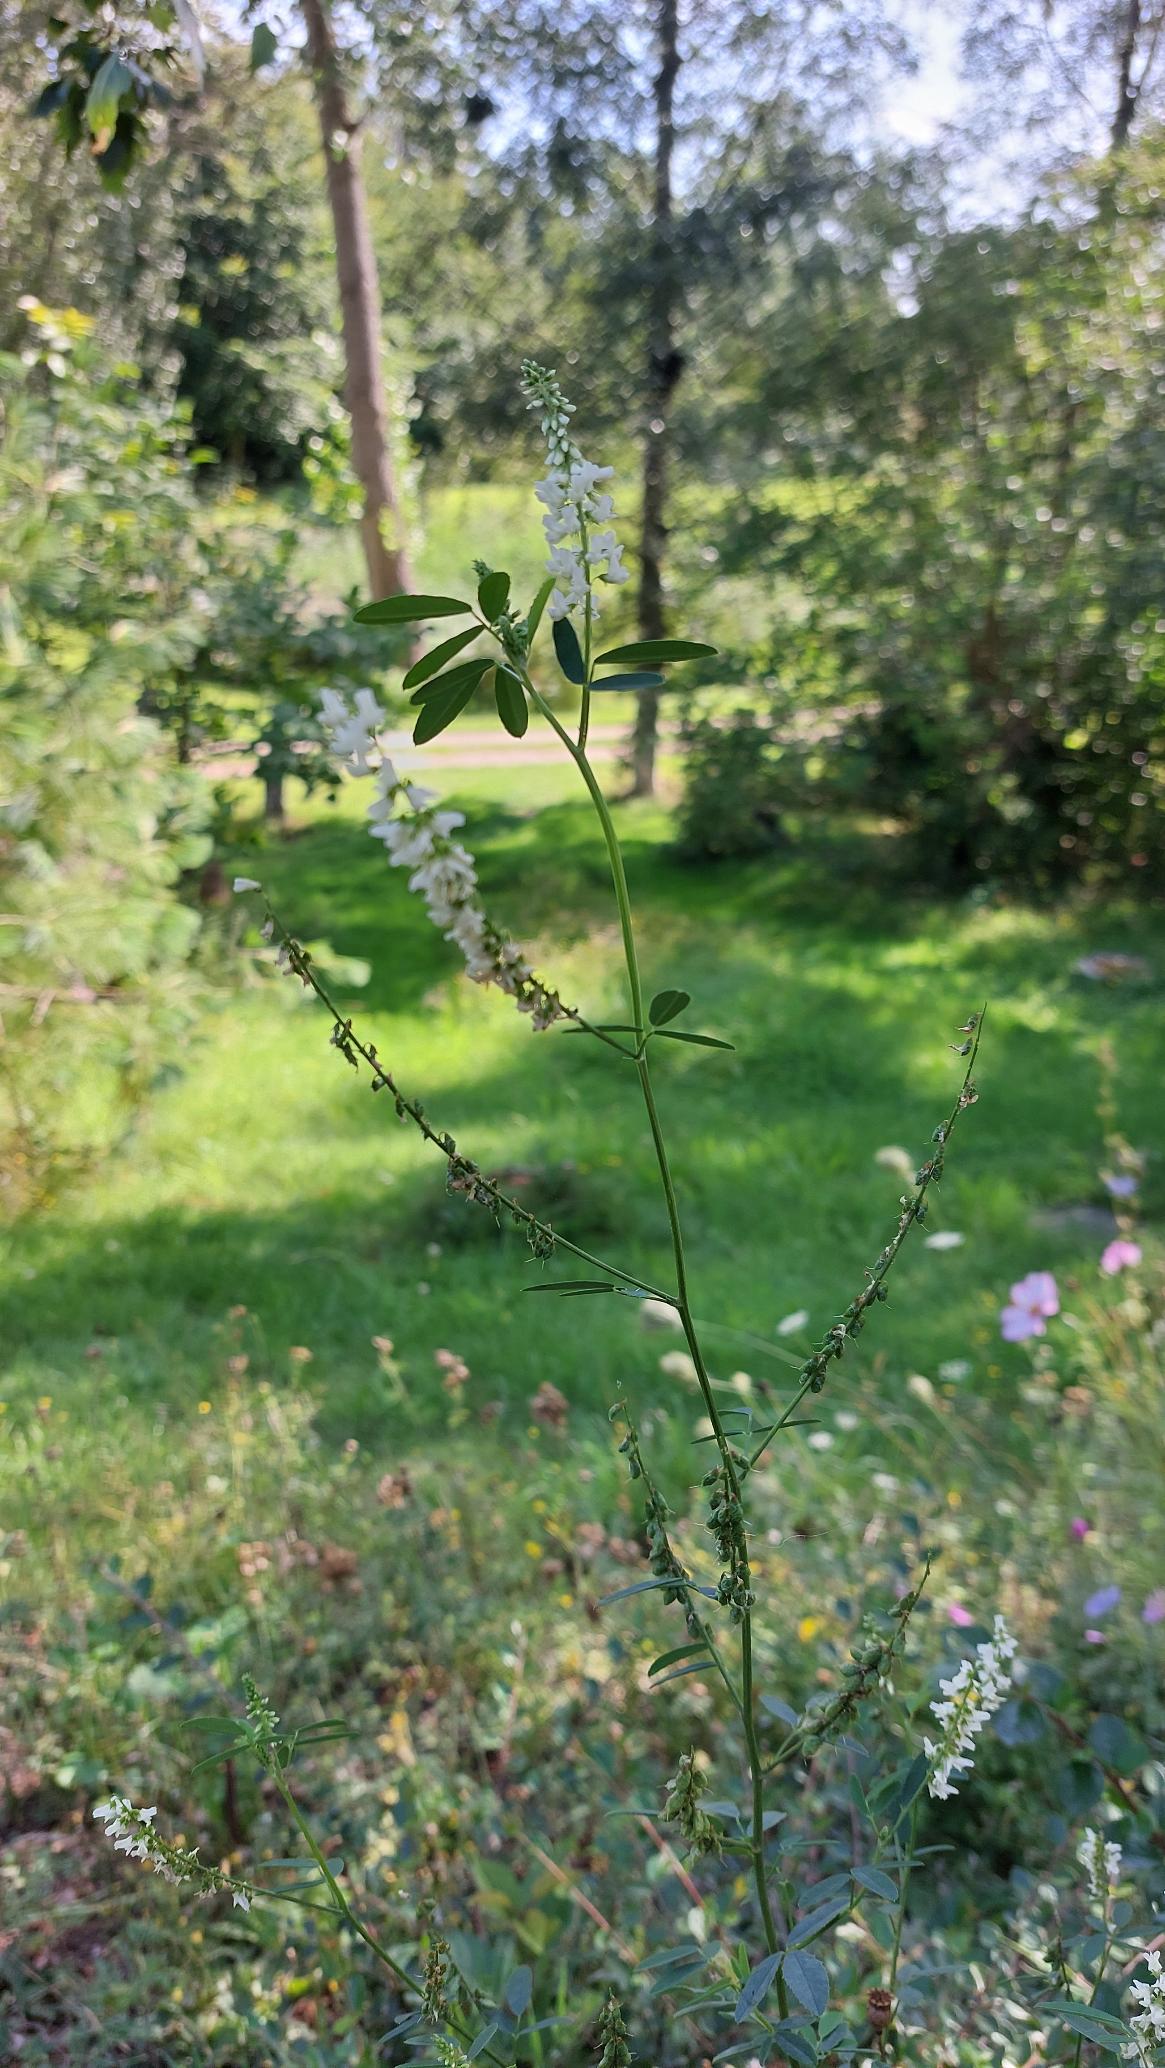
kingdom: Plantae
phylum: Tracheophyta
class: Magnoliopsida
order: Fabales
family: Fabaceae
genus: Melilotus
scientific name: Melilotus albus
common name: Hvid stenkløver
